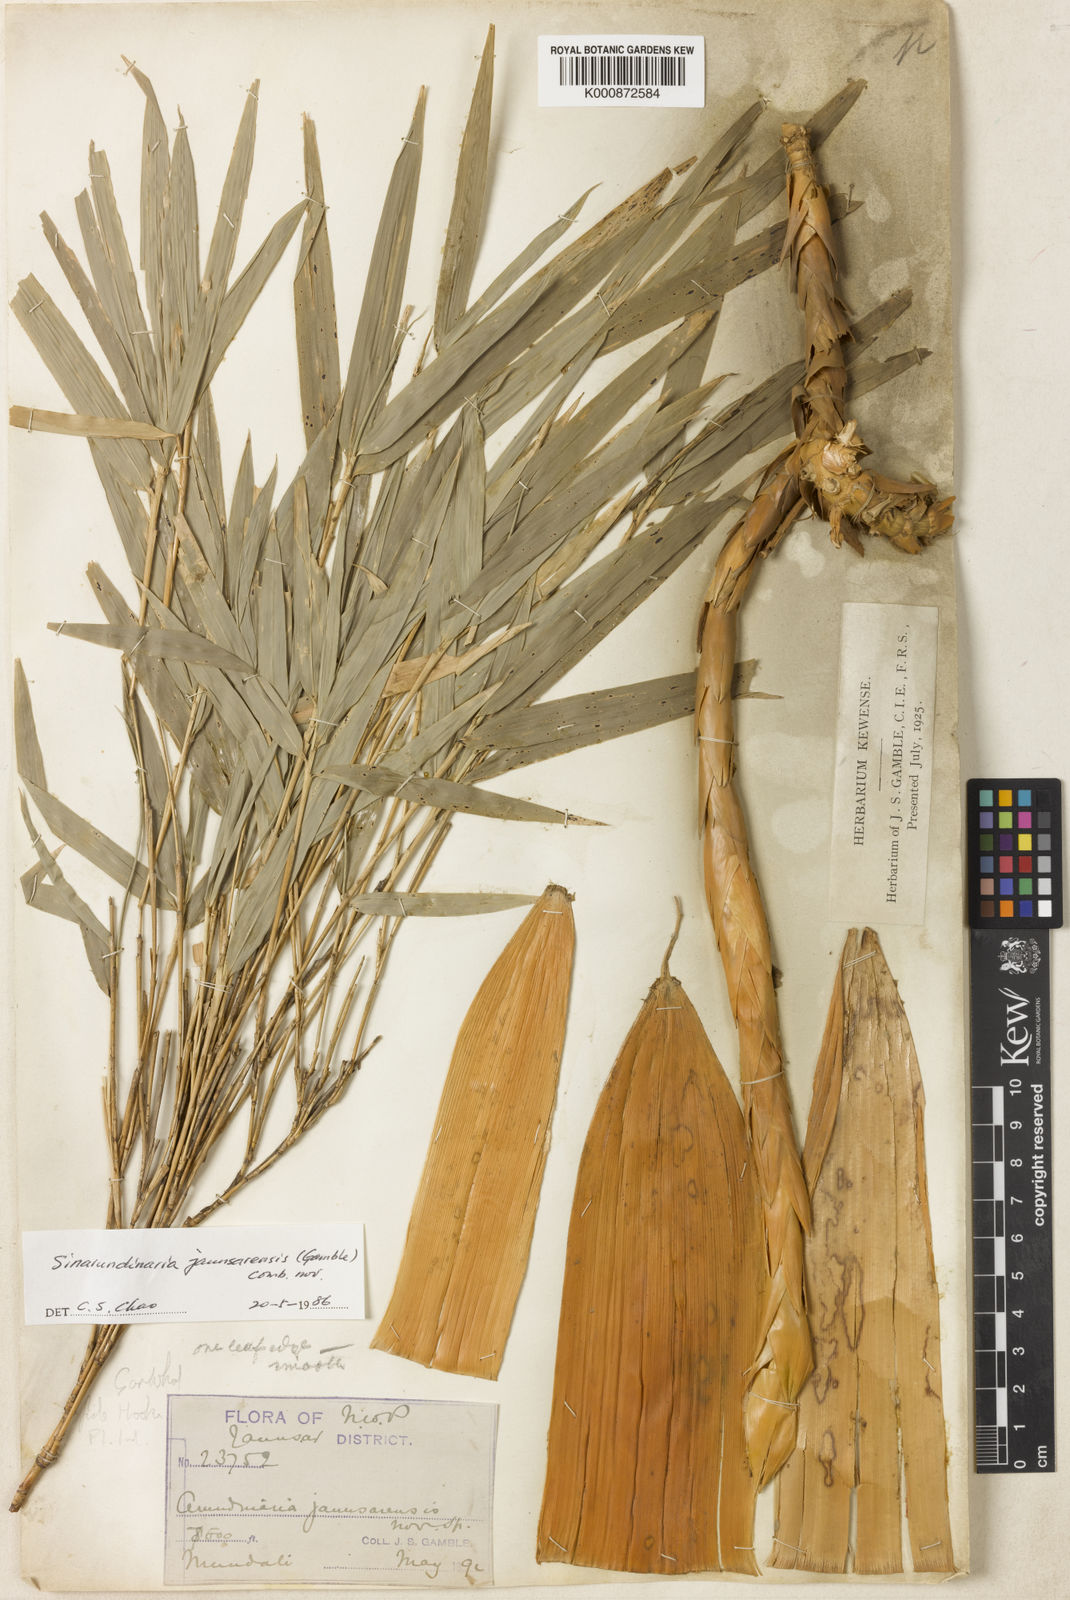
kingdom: Plantae
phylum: Tracheophyta
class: Liliopsida
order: Poales
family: Poaceae
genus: Yushania
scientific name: Yushania anceps
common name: Indian fountain-bamboo
